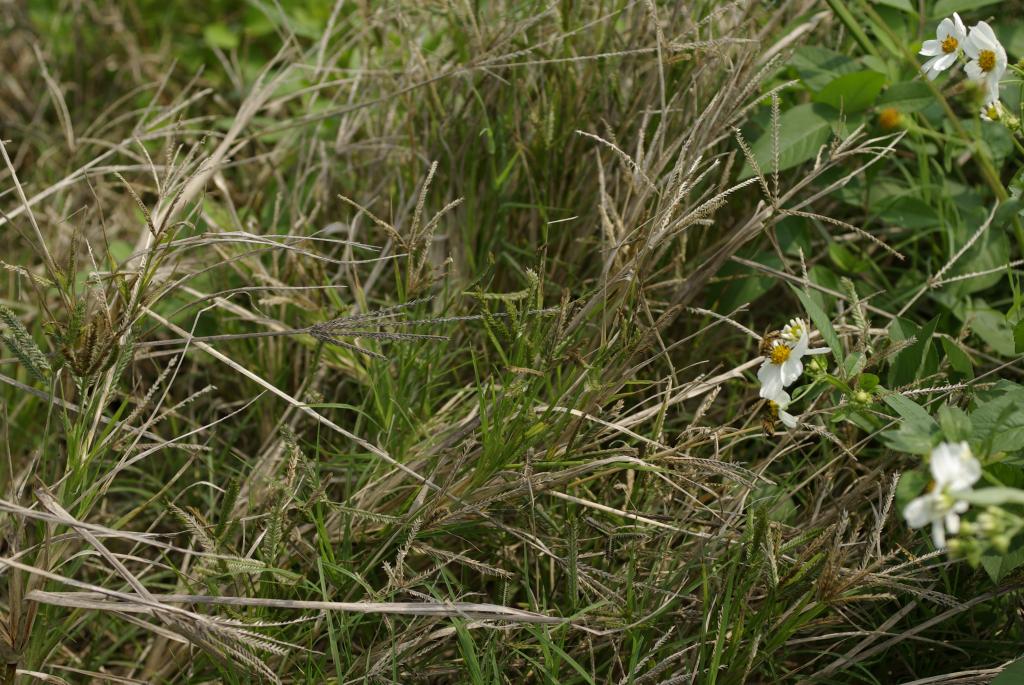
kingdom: Plantae
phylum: Tracheophyta
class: Liliopsida
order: Poales
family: Poaceae
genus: Eleusine
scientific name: Eleusine indica
